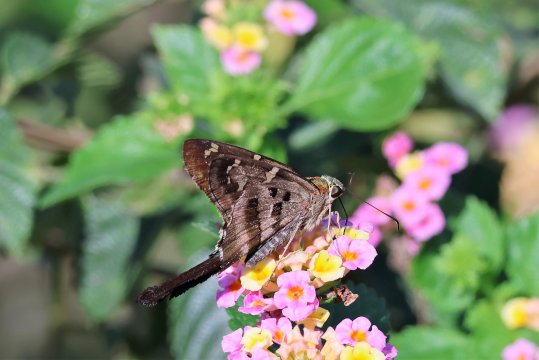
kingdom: Animalia
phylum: Arthropoda
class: Insecta
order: Lepidoptera
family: Hesperiidae
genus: Urbanus
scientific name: Urbanus proteus
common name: Long-tailed Skipper
